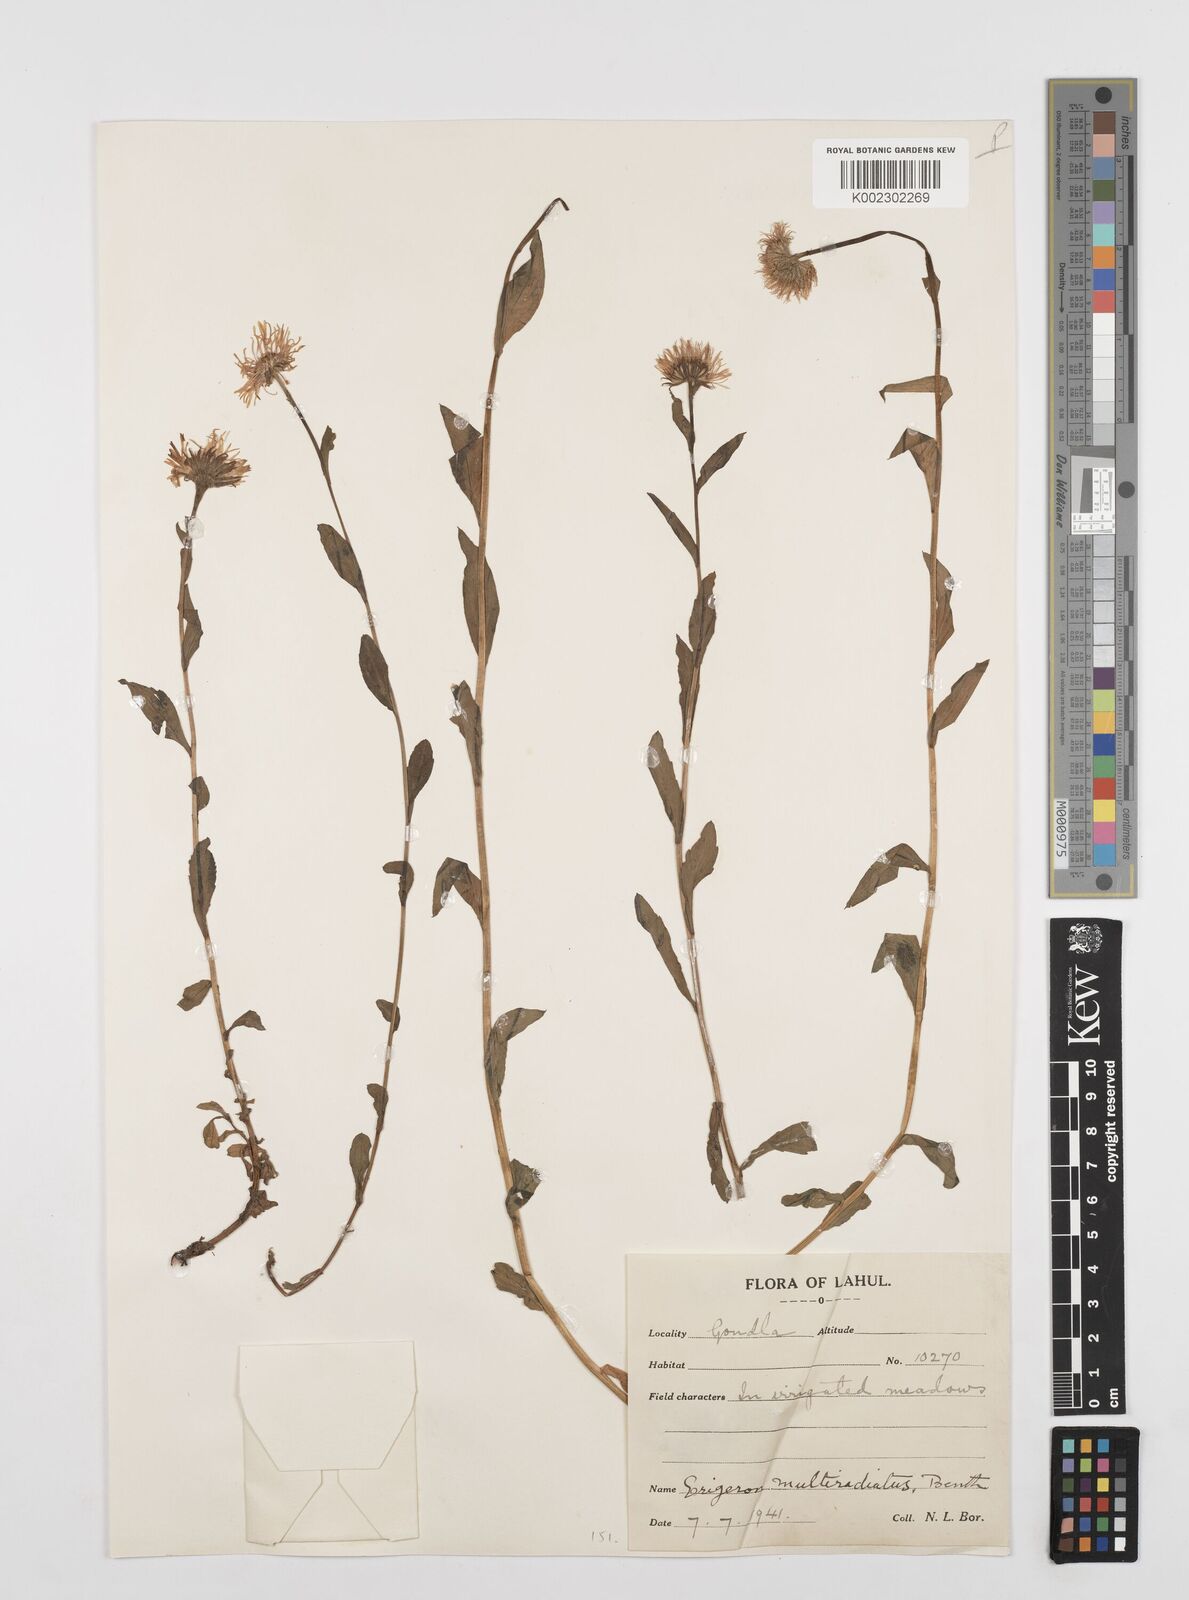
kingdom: Plantae
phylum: Tracheophyta
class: Magnoliopsida
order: Asterales
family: Asteraceae
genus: Erigeron
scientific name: Erigeron multiradiatus
